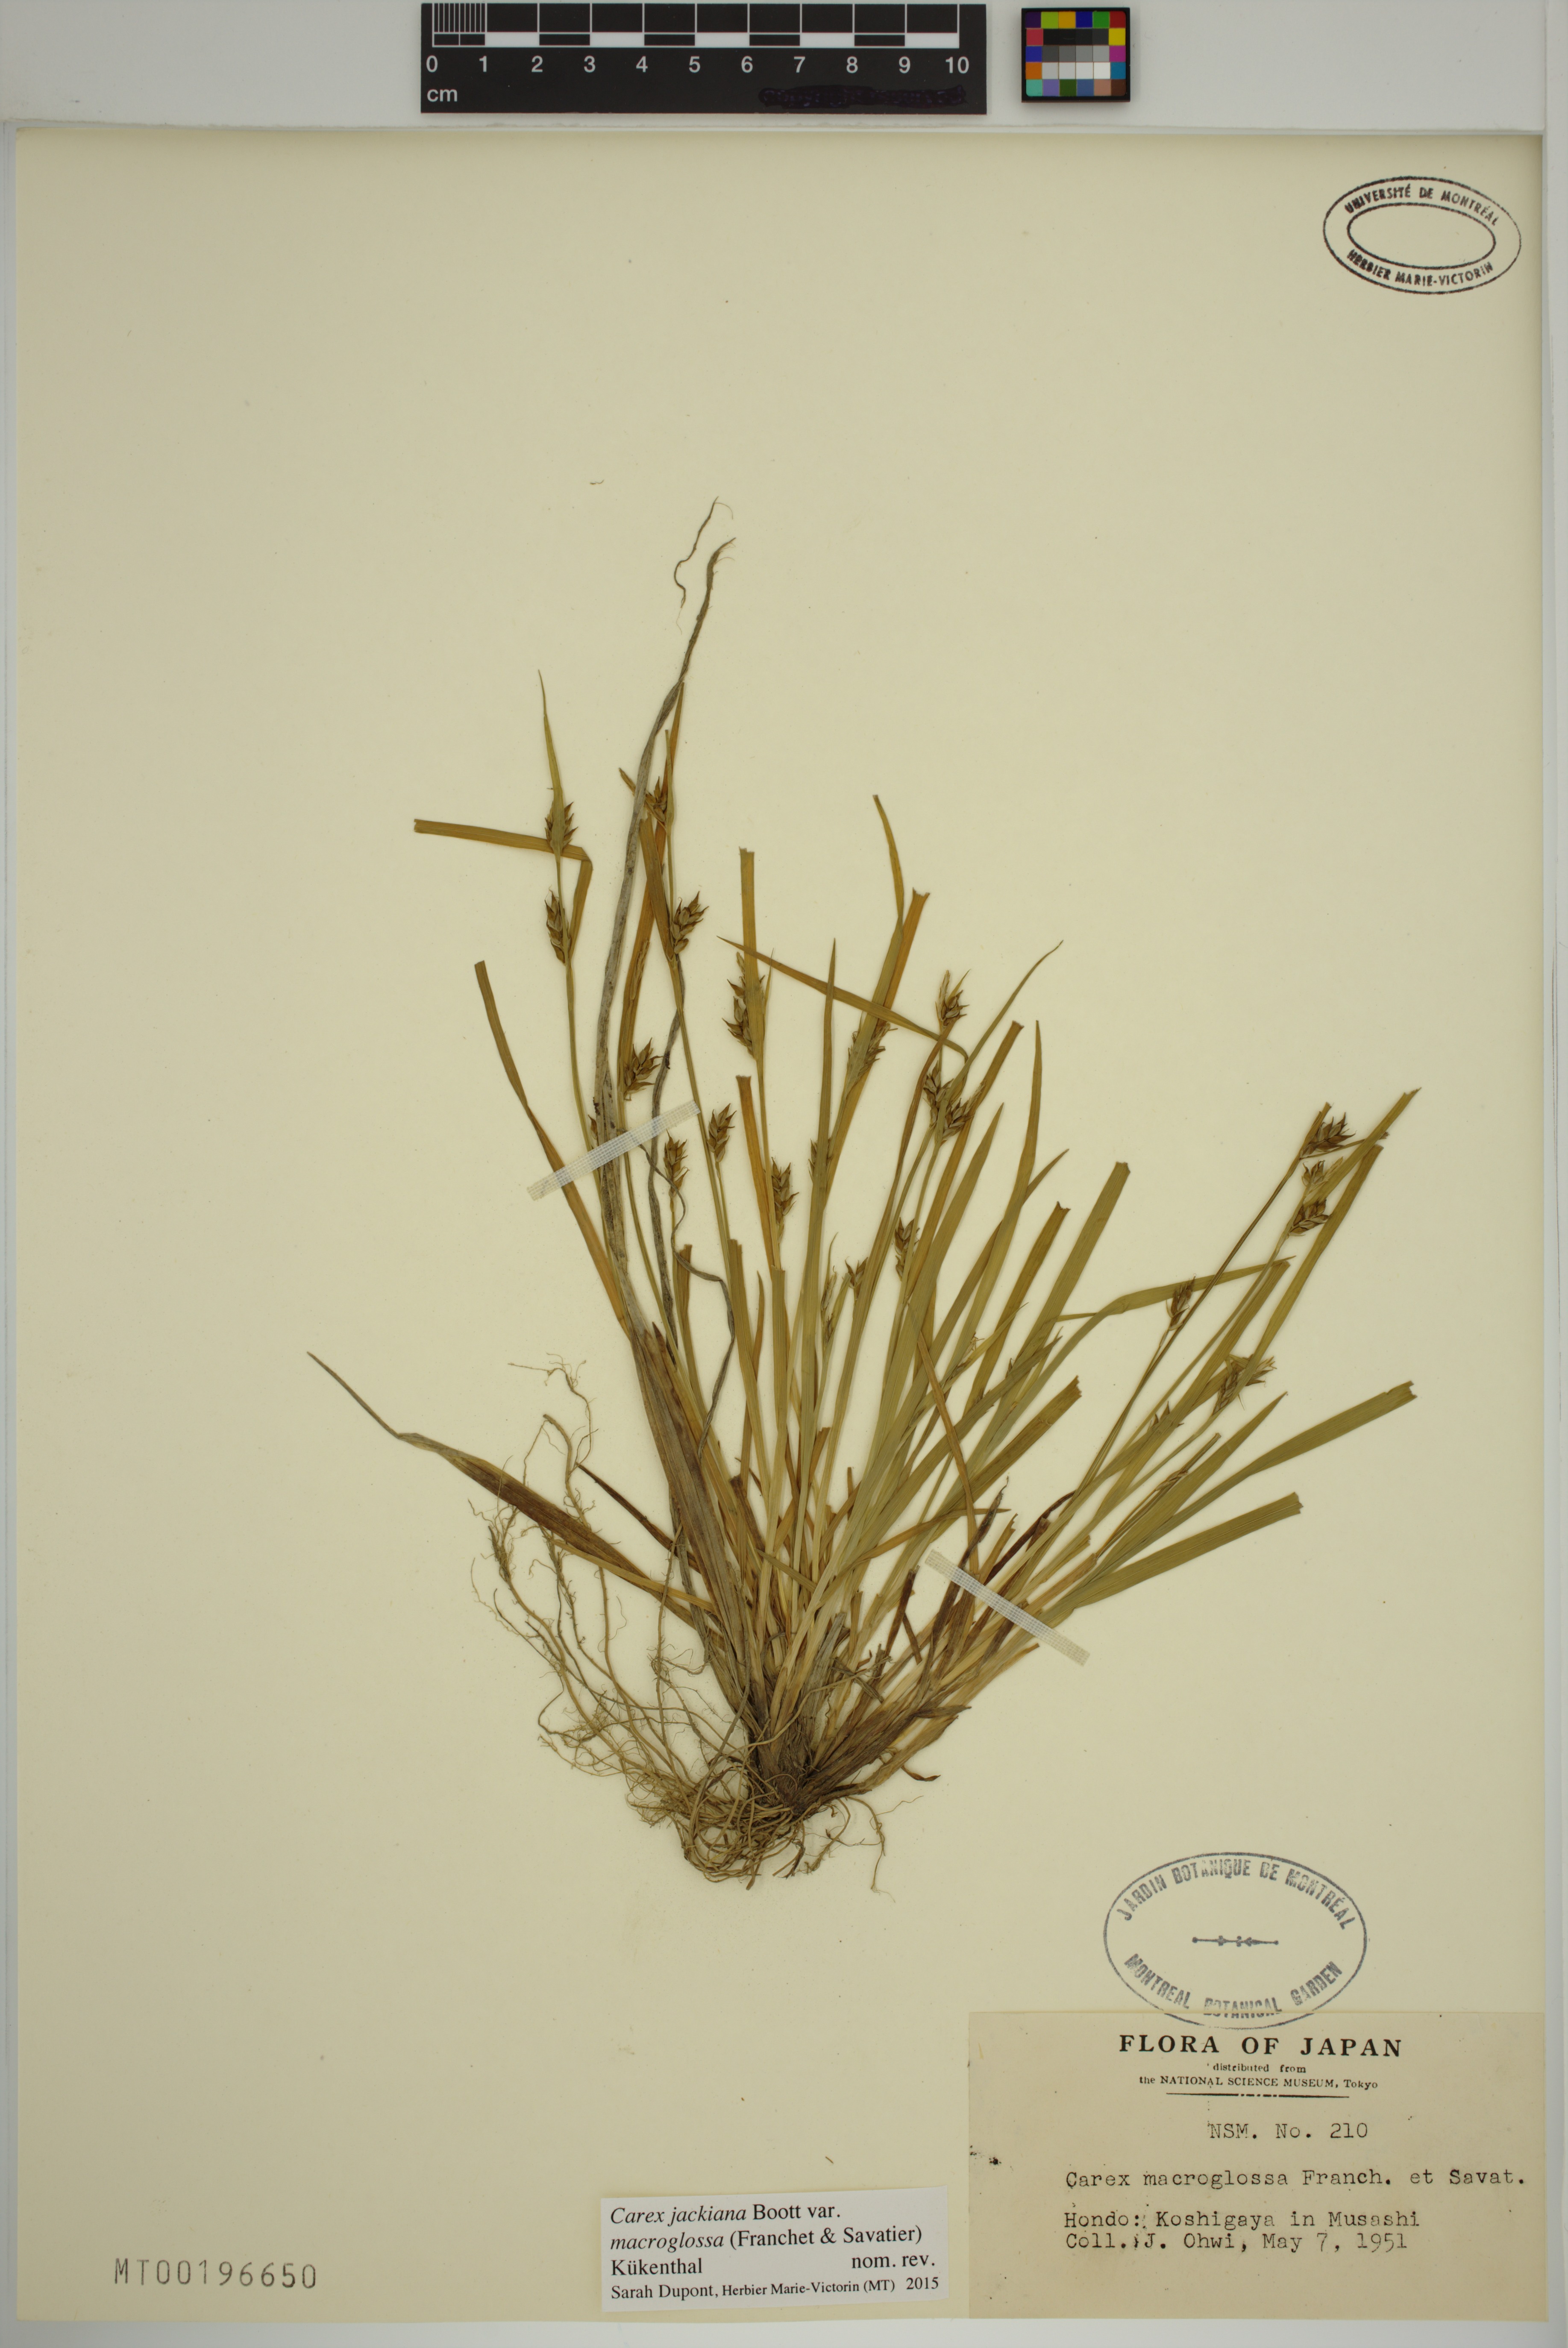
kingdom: Plantae
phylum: Tracheophyta
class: Liliopsida
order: Poales
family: Cyperaceae
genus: Carex
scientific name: Carex macroglossa
